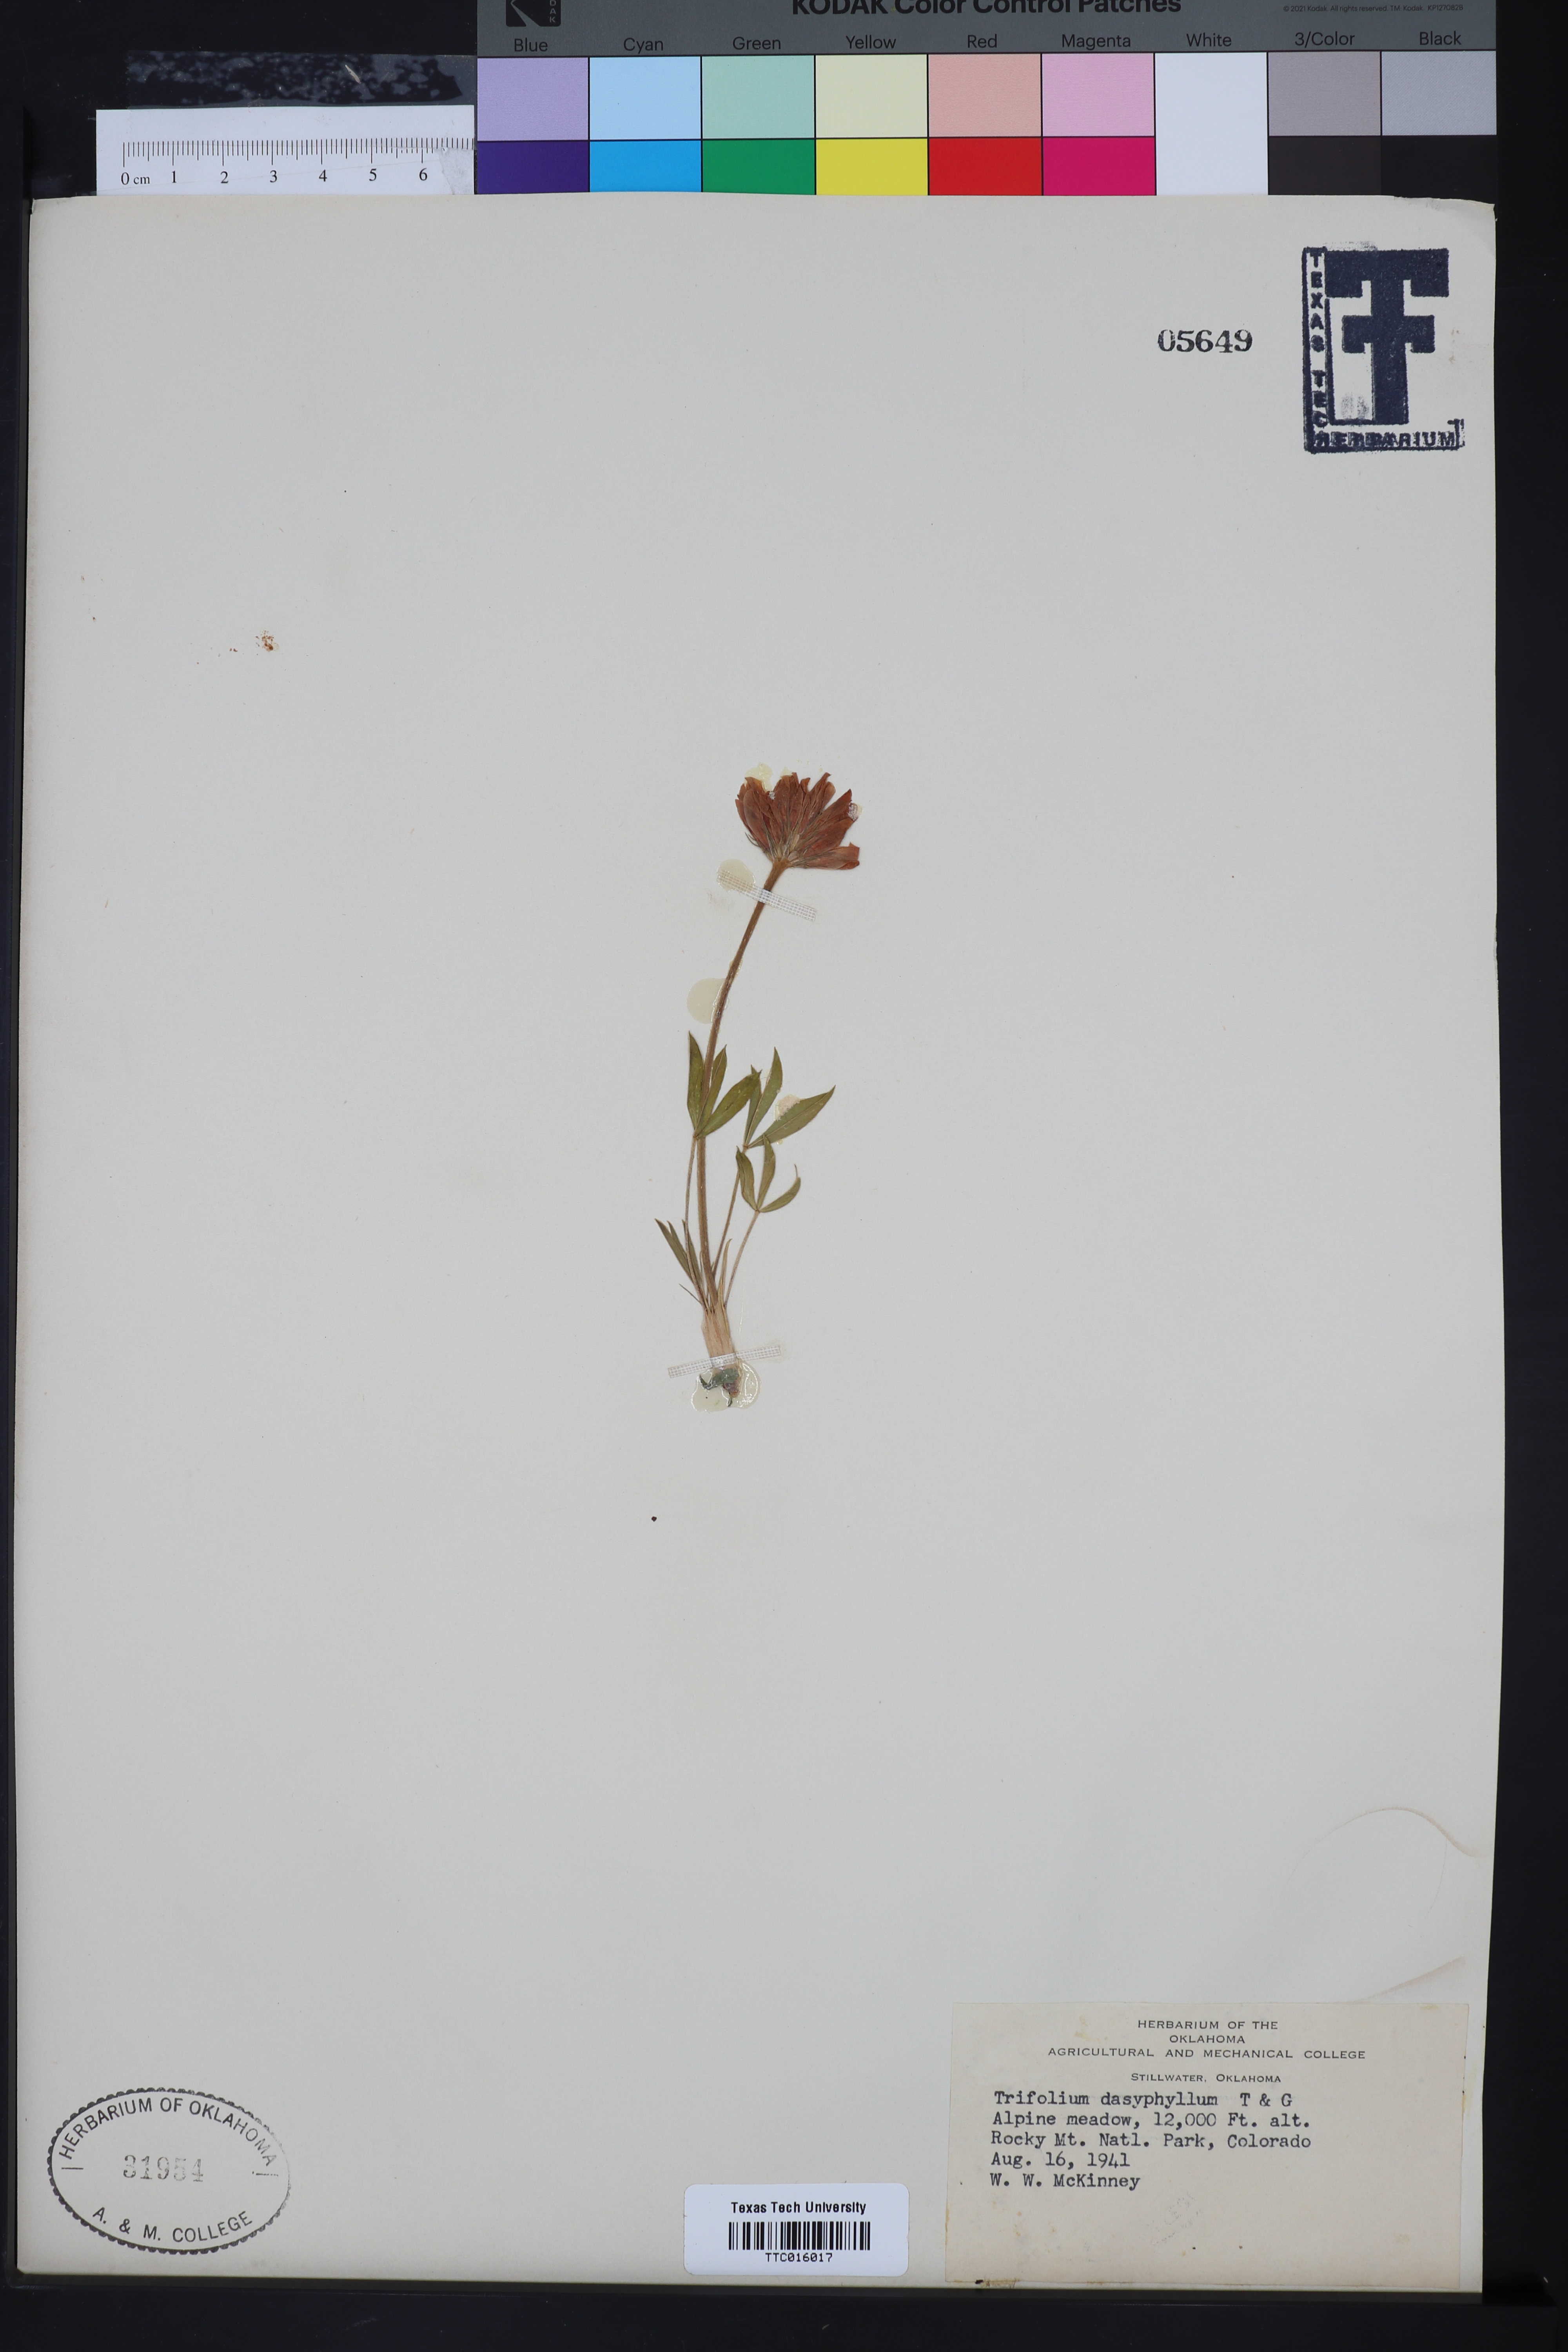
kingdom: Plantae
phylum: Tracheophyta
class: Magnoliopsida
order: Fabales
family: Fabaceae
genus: Trifolium
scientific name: Trifolium dasyphyllum
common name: Whip-root clover
